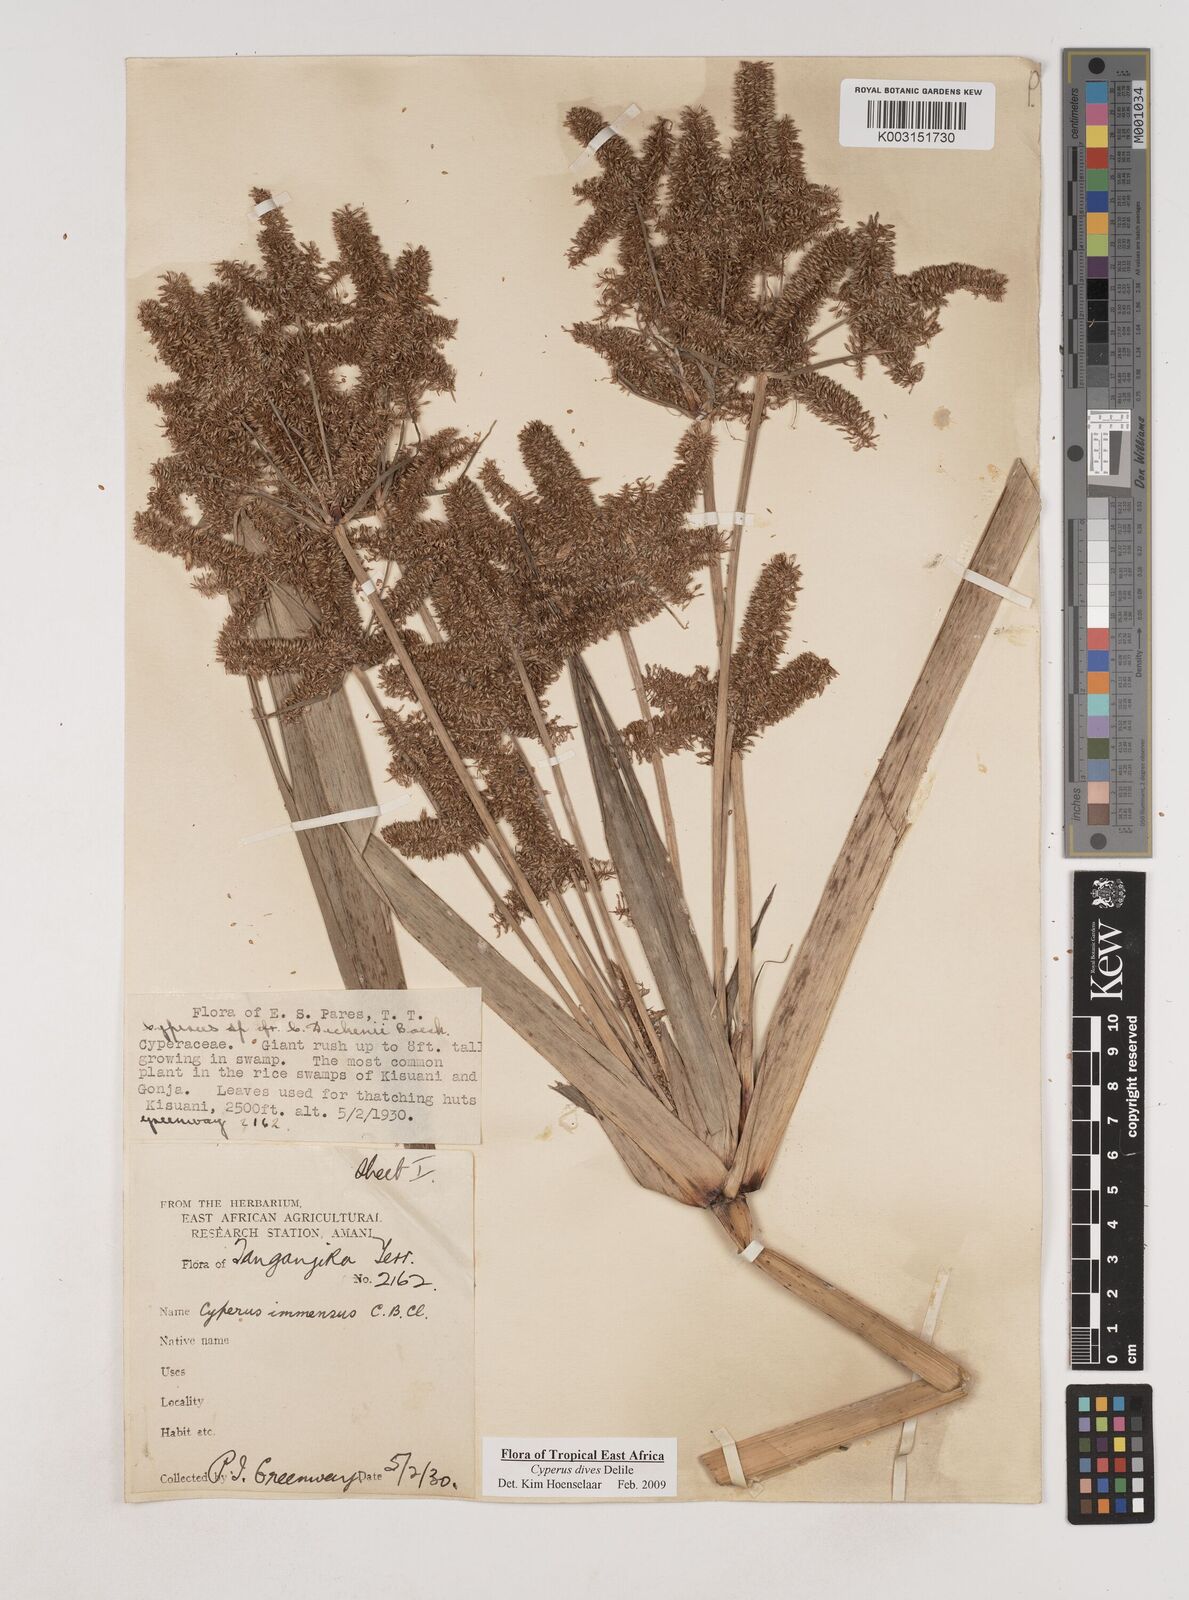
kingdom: Plantae
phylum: Tracheophyta
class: Liliopsida
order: Poales
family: Cyperaceae
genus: Cyperus
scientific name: Cyperus dives
